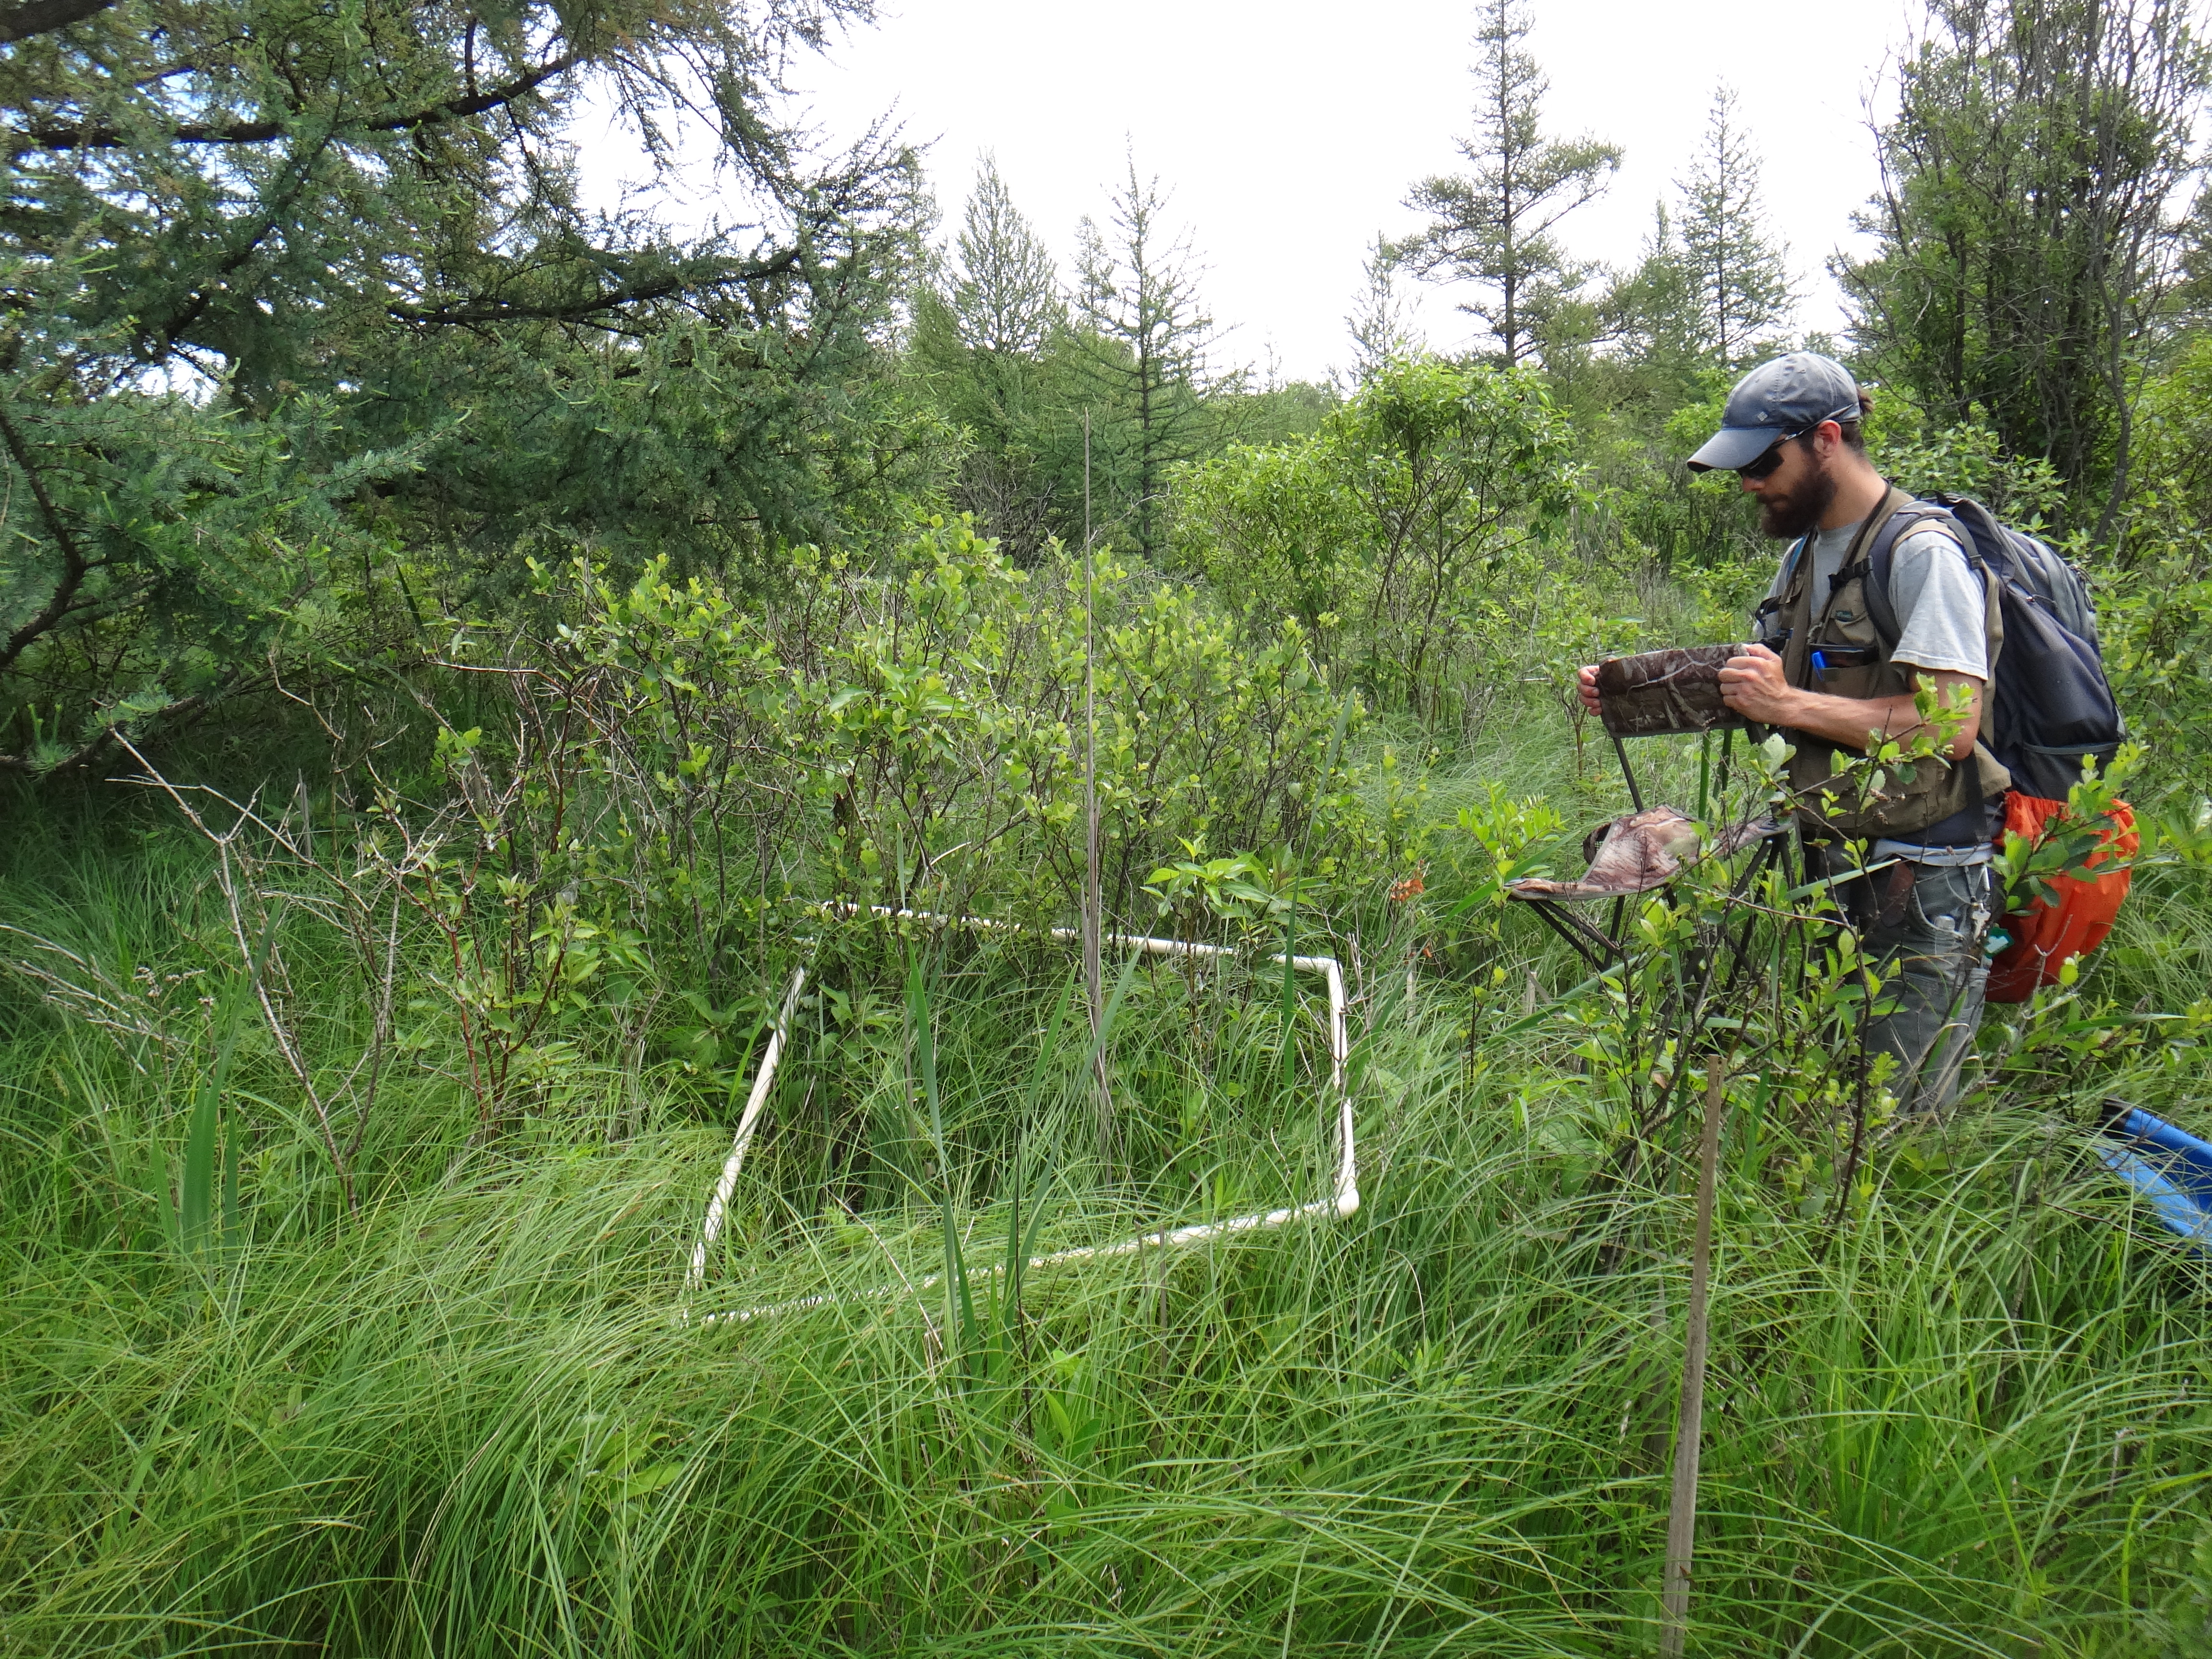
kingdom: Plantae
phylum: Tracheophyta
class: Magnoliopsida
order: Apiales
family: Apiaceae
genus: Cicuta
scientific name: Cicuta maculata
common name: Spotted cowbane
